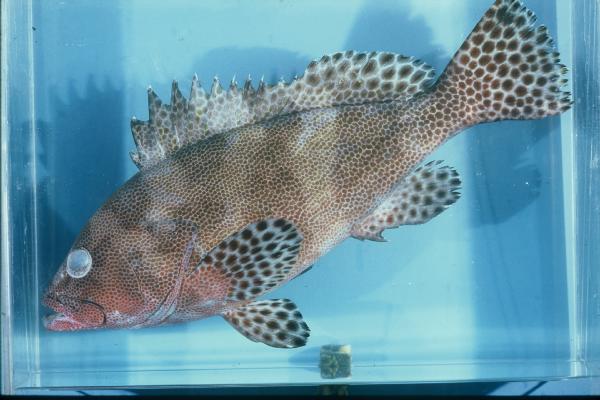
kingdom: Animalia
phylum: Chordata
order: Perciformes
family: Serranidae
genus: Epinephelus
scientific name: Epinephelus miliaris
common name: Netfin grouper
